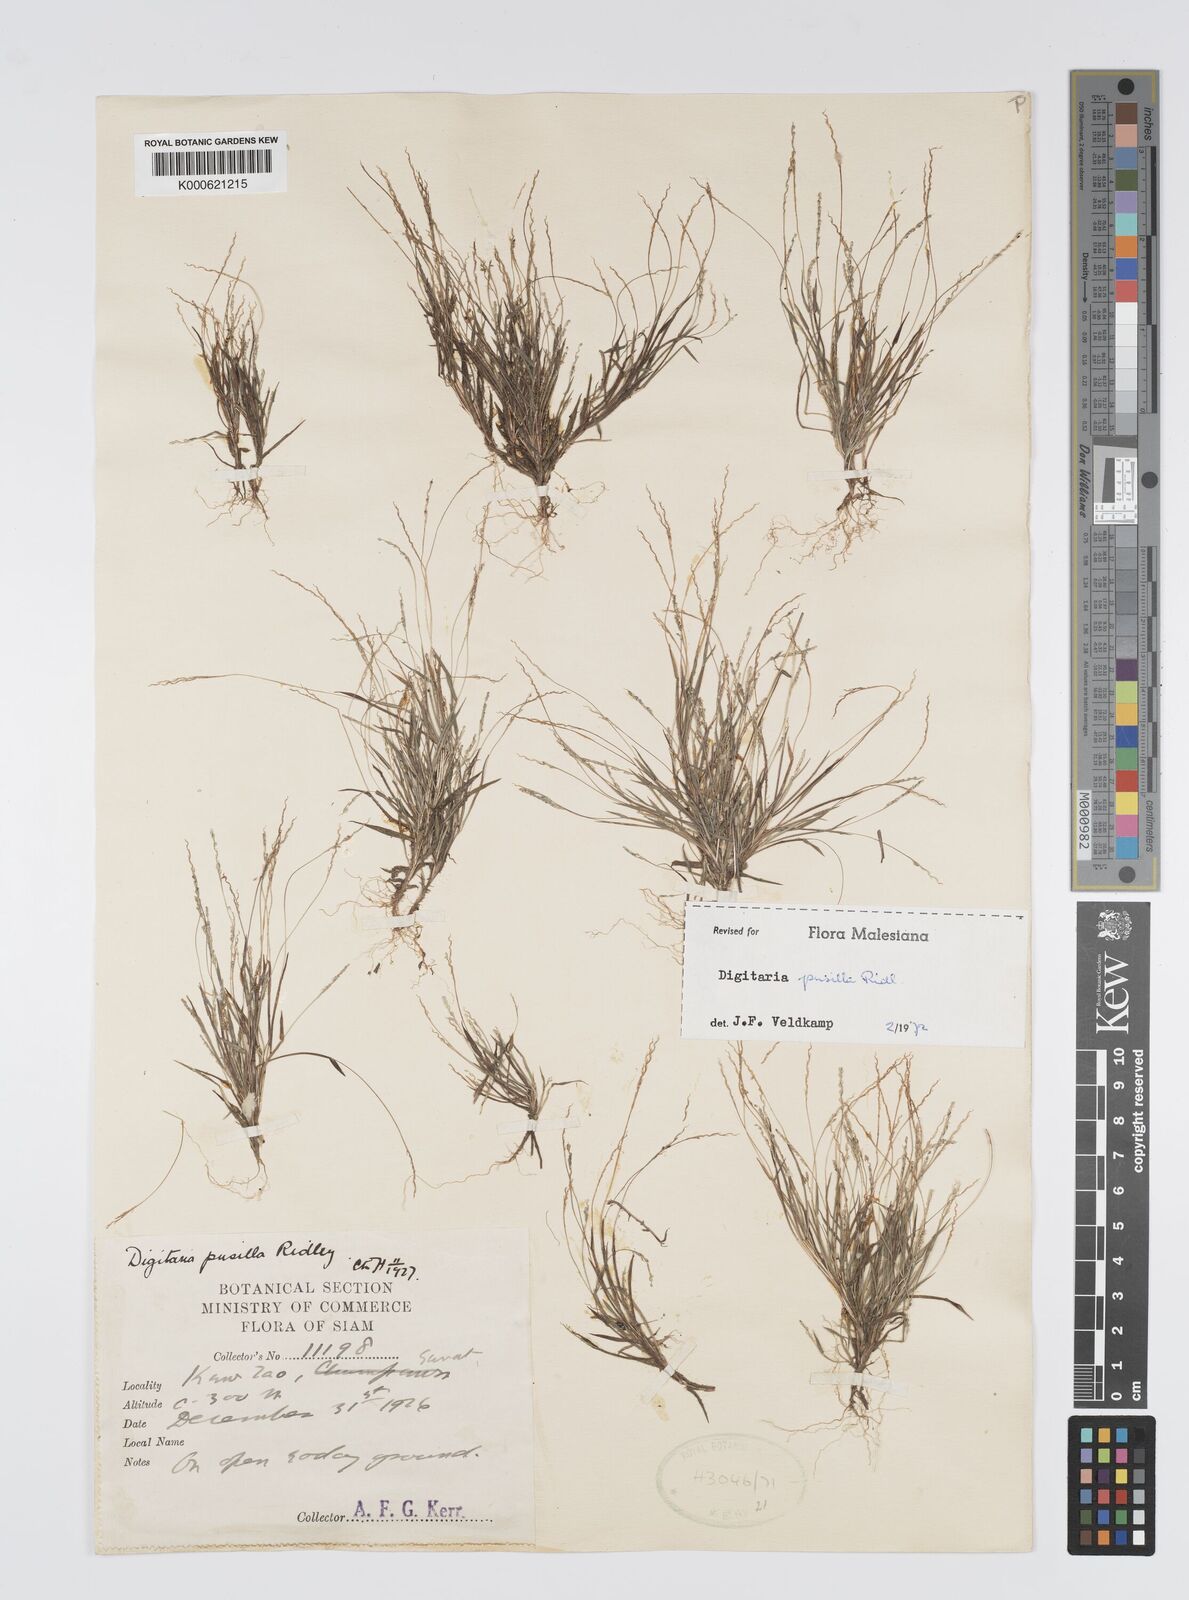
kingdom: Plantae
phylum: Tracheophyta
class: Liliopsida
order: Poales
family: Poaceae
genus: Digitaria
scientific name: Digitaria pusilla
